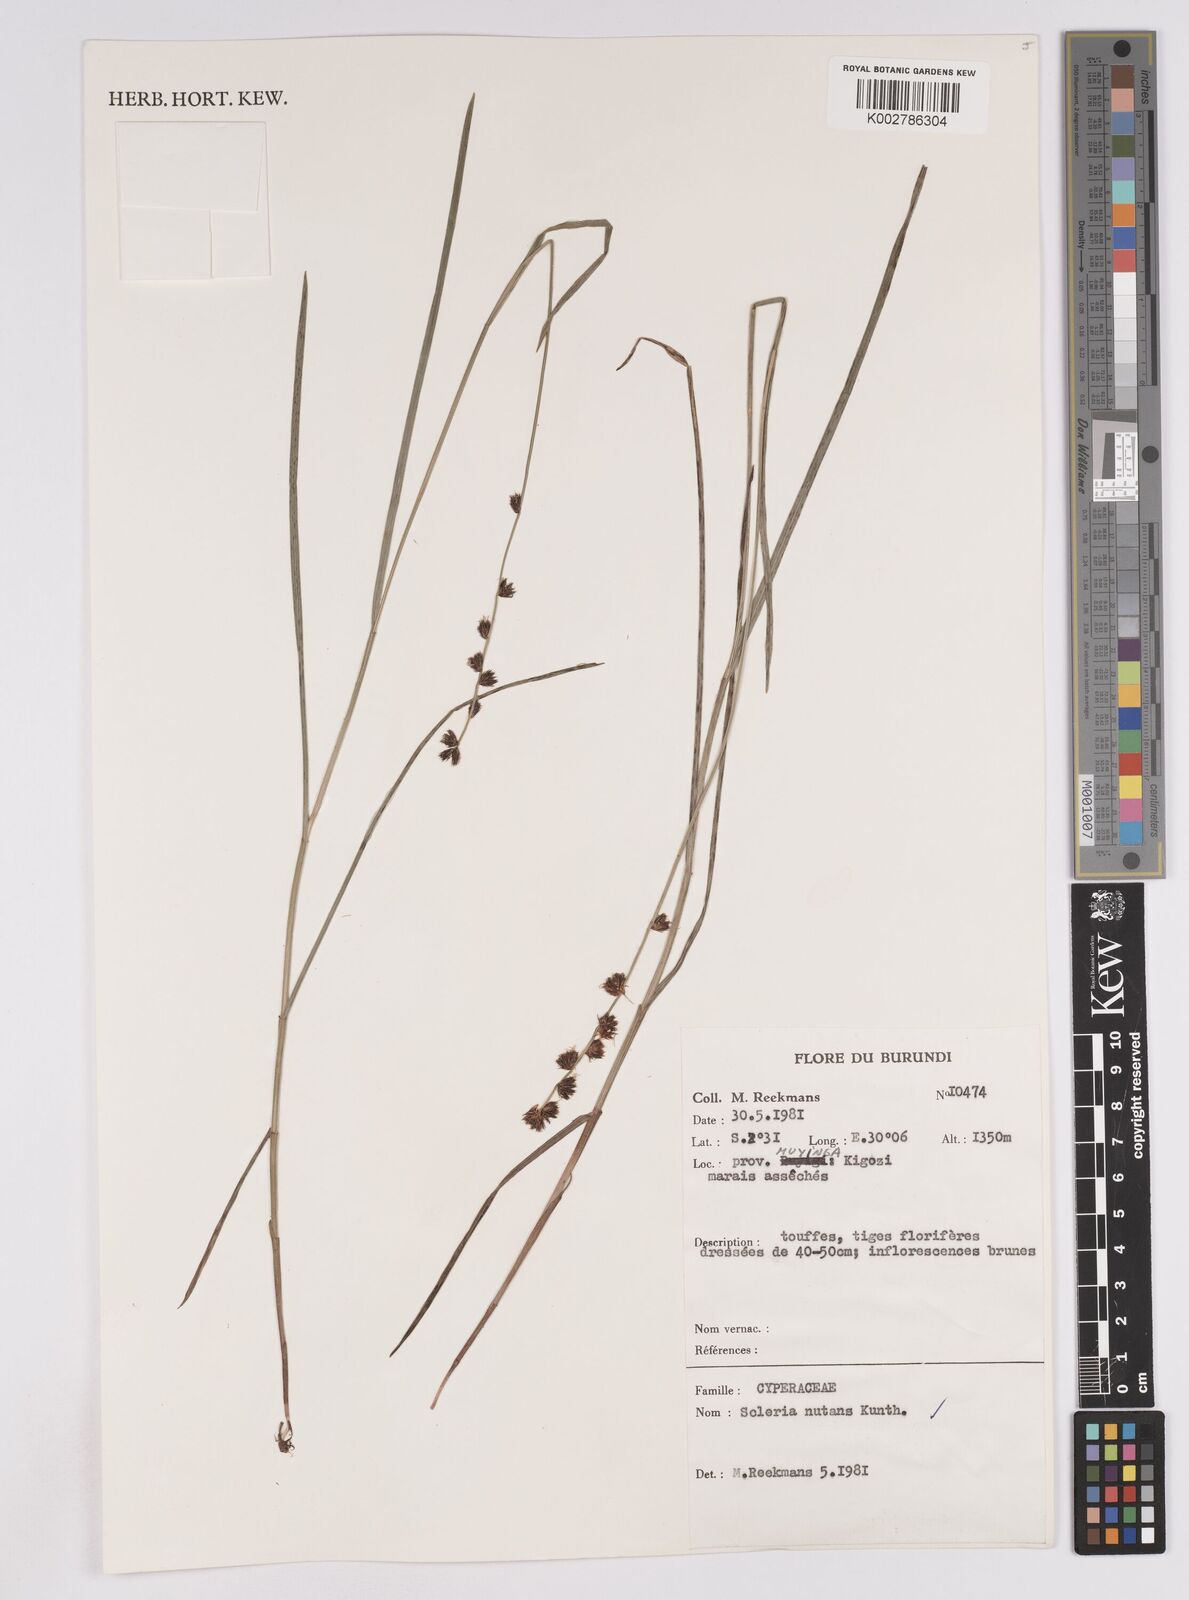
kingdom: Plantae
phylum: Tracheophyta
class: Liliopsida
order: Poales
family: Cyperaceae
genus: Scleria
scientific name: Scleria brownii
